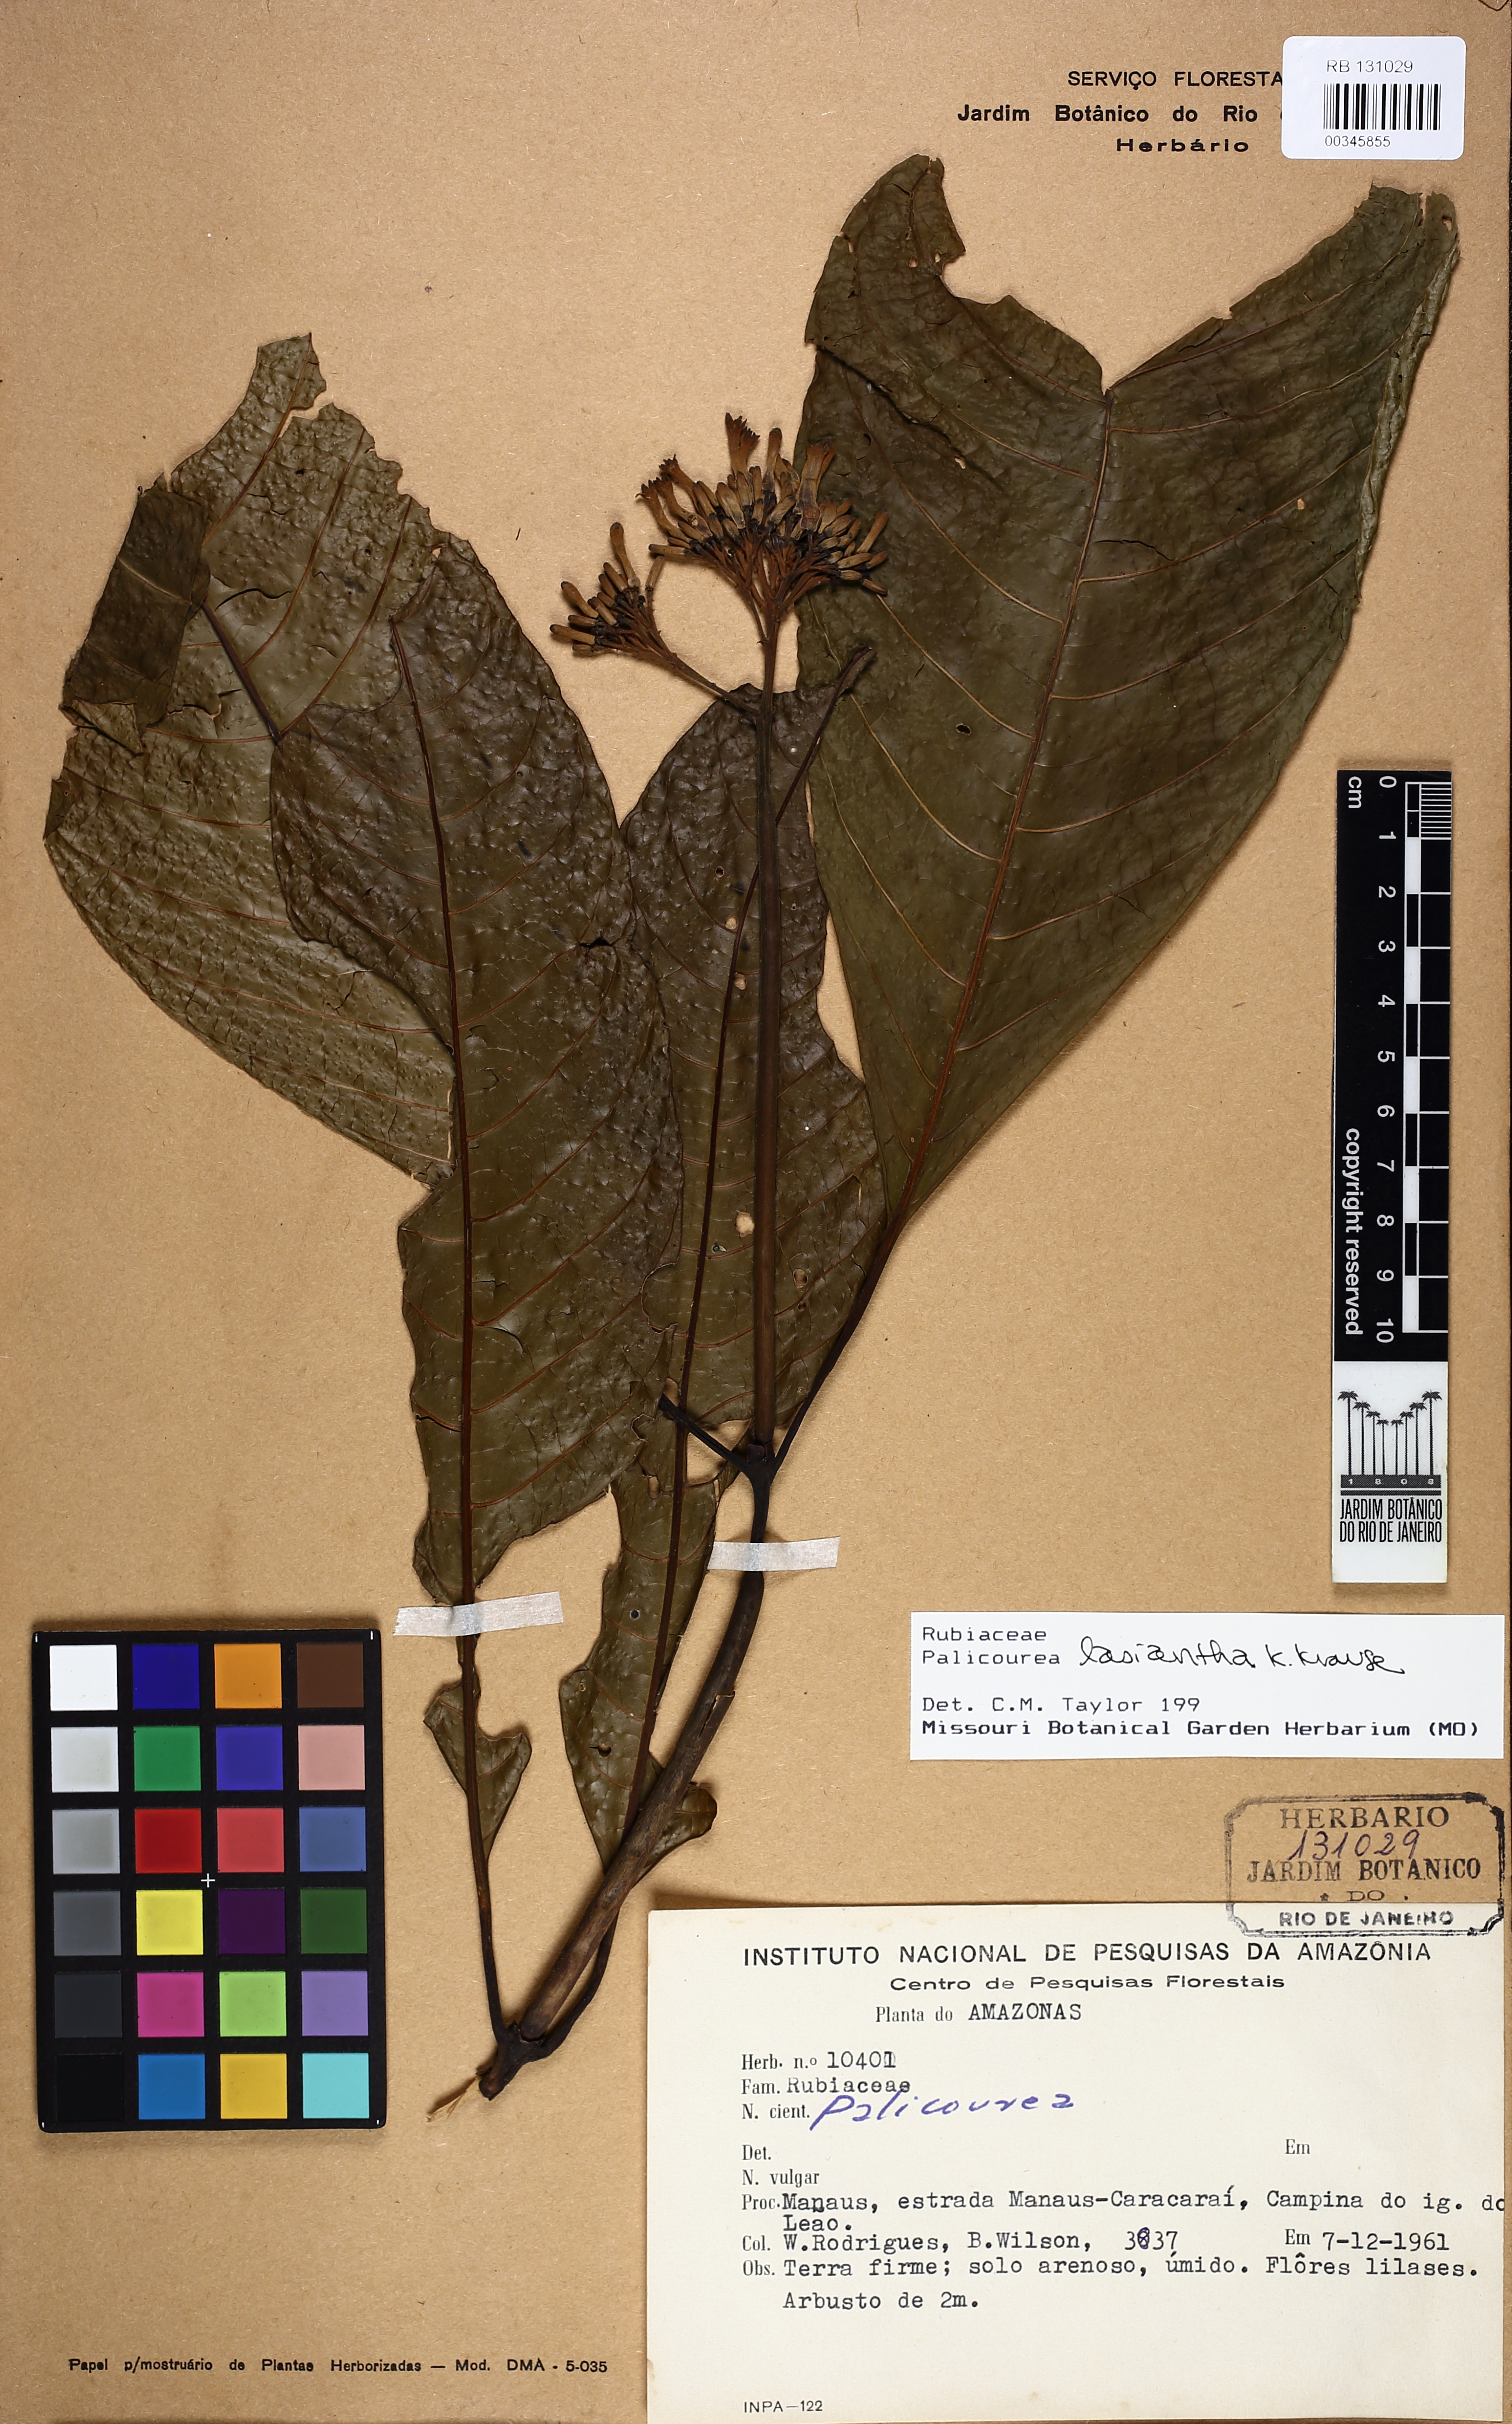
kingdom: Plantae
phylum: Tracheophyta
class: Magnoliopsida
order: Gentianales
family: Rubiaceae
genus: Palicourea
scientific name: Palicourea lasiantha
